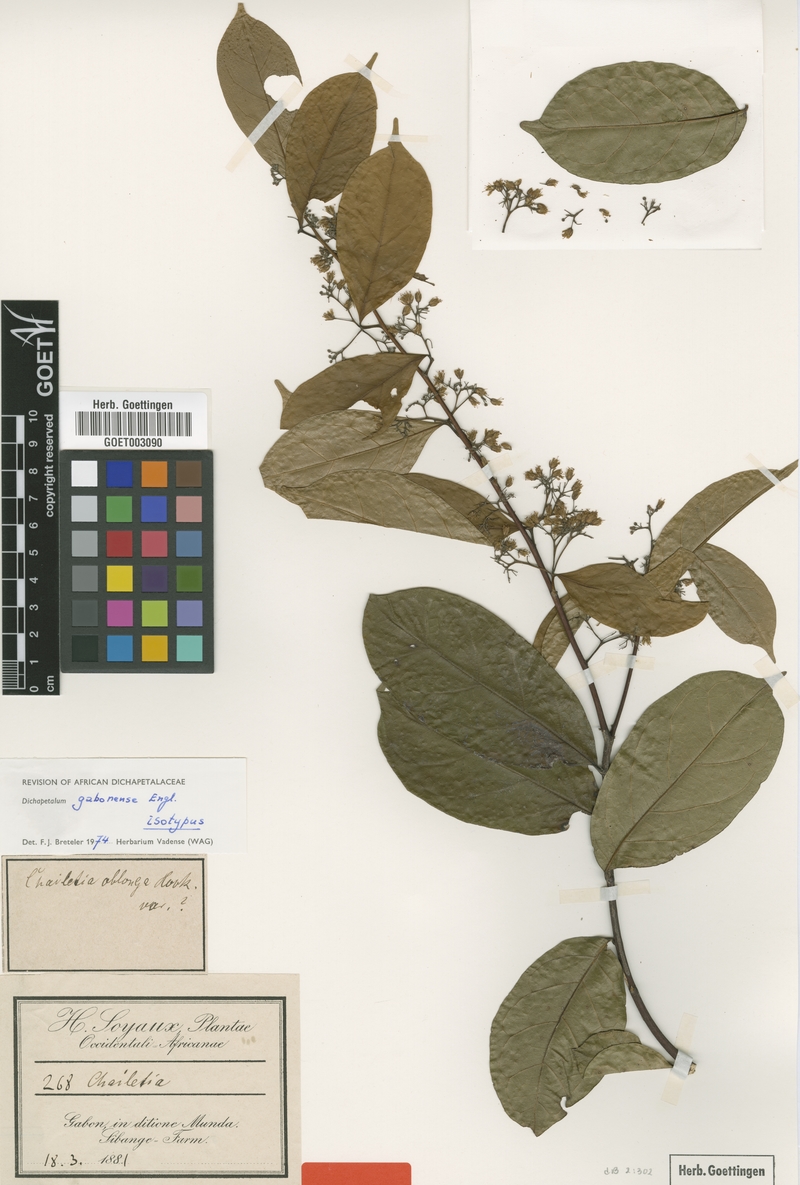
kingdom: Plantae
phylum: Tracheophyta
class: Magnoliopsida
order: Malpighiales
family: Dichapetalaceae
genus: Dichapetalum
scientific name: Dichapetalum gabonense
